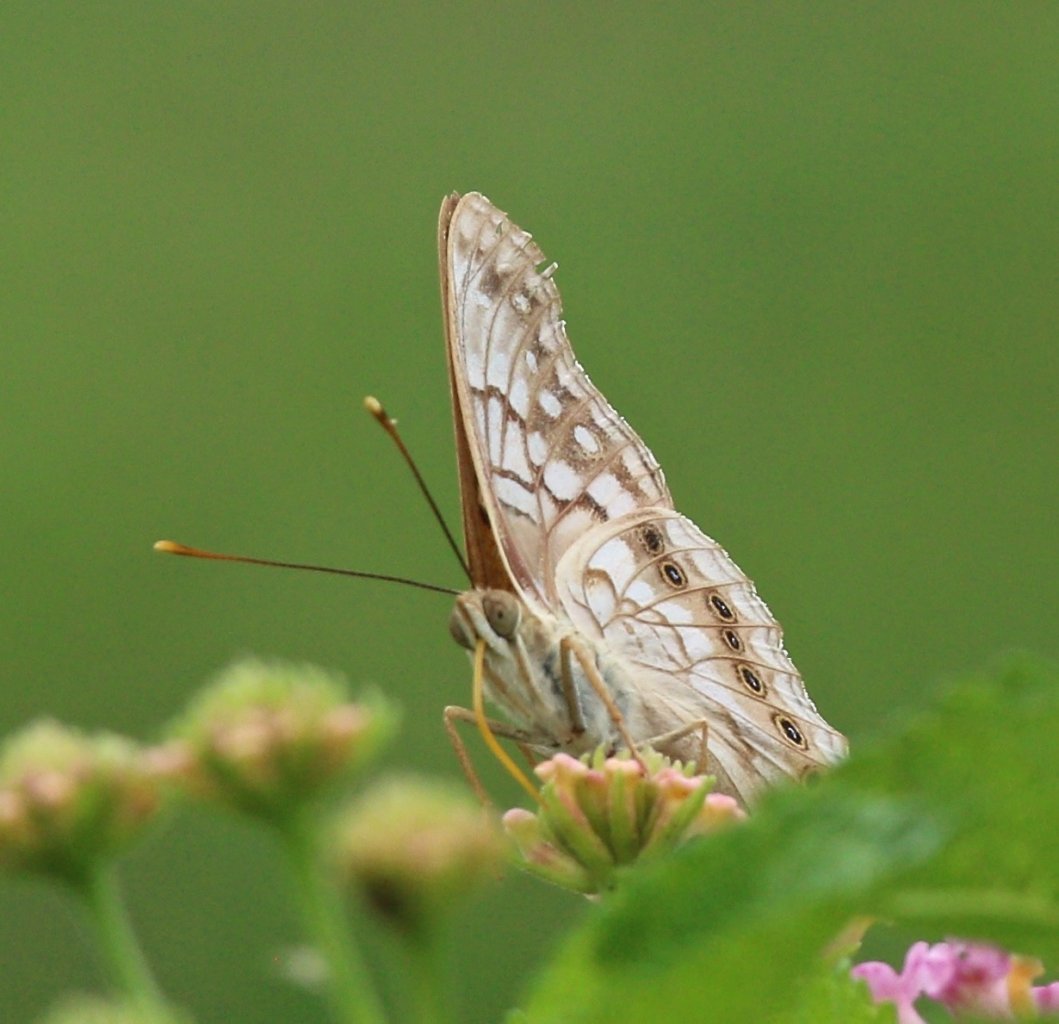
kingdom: Animalia
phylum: Arthropoda
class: Insecta
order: Lepidoptera
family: Nymphalidae
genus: Asterocampa
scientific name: Asterocampa clyton
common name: Tawny Emperor
